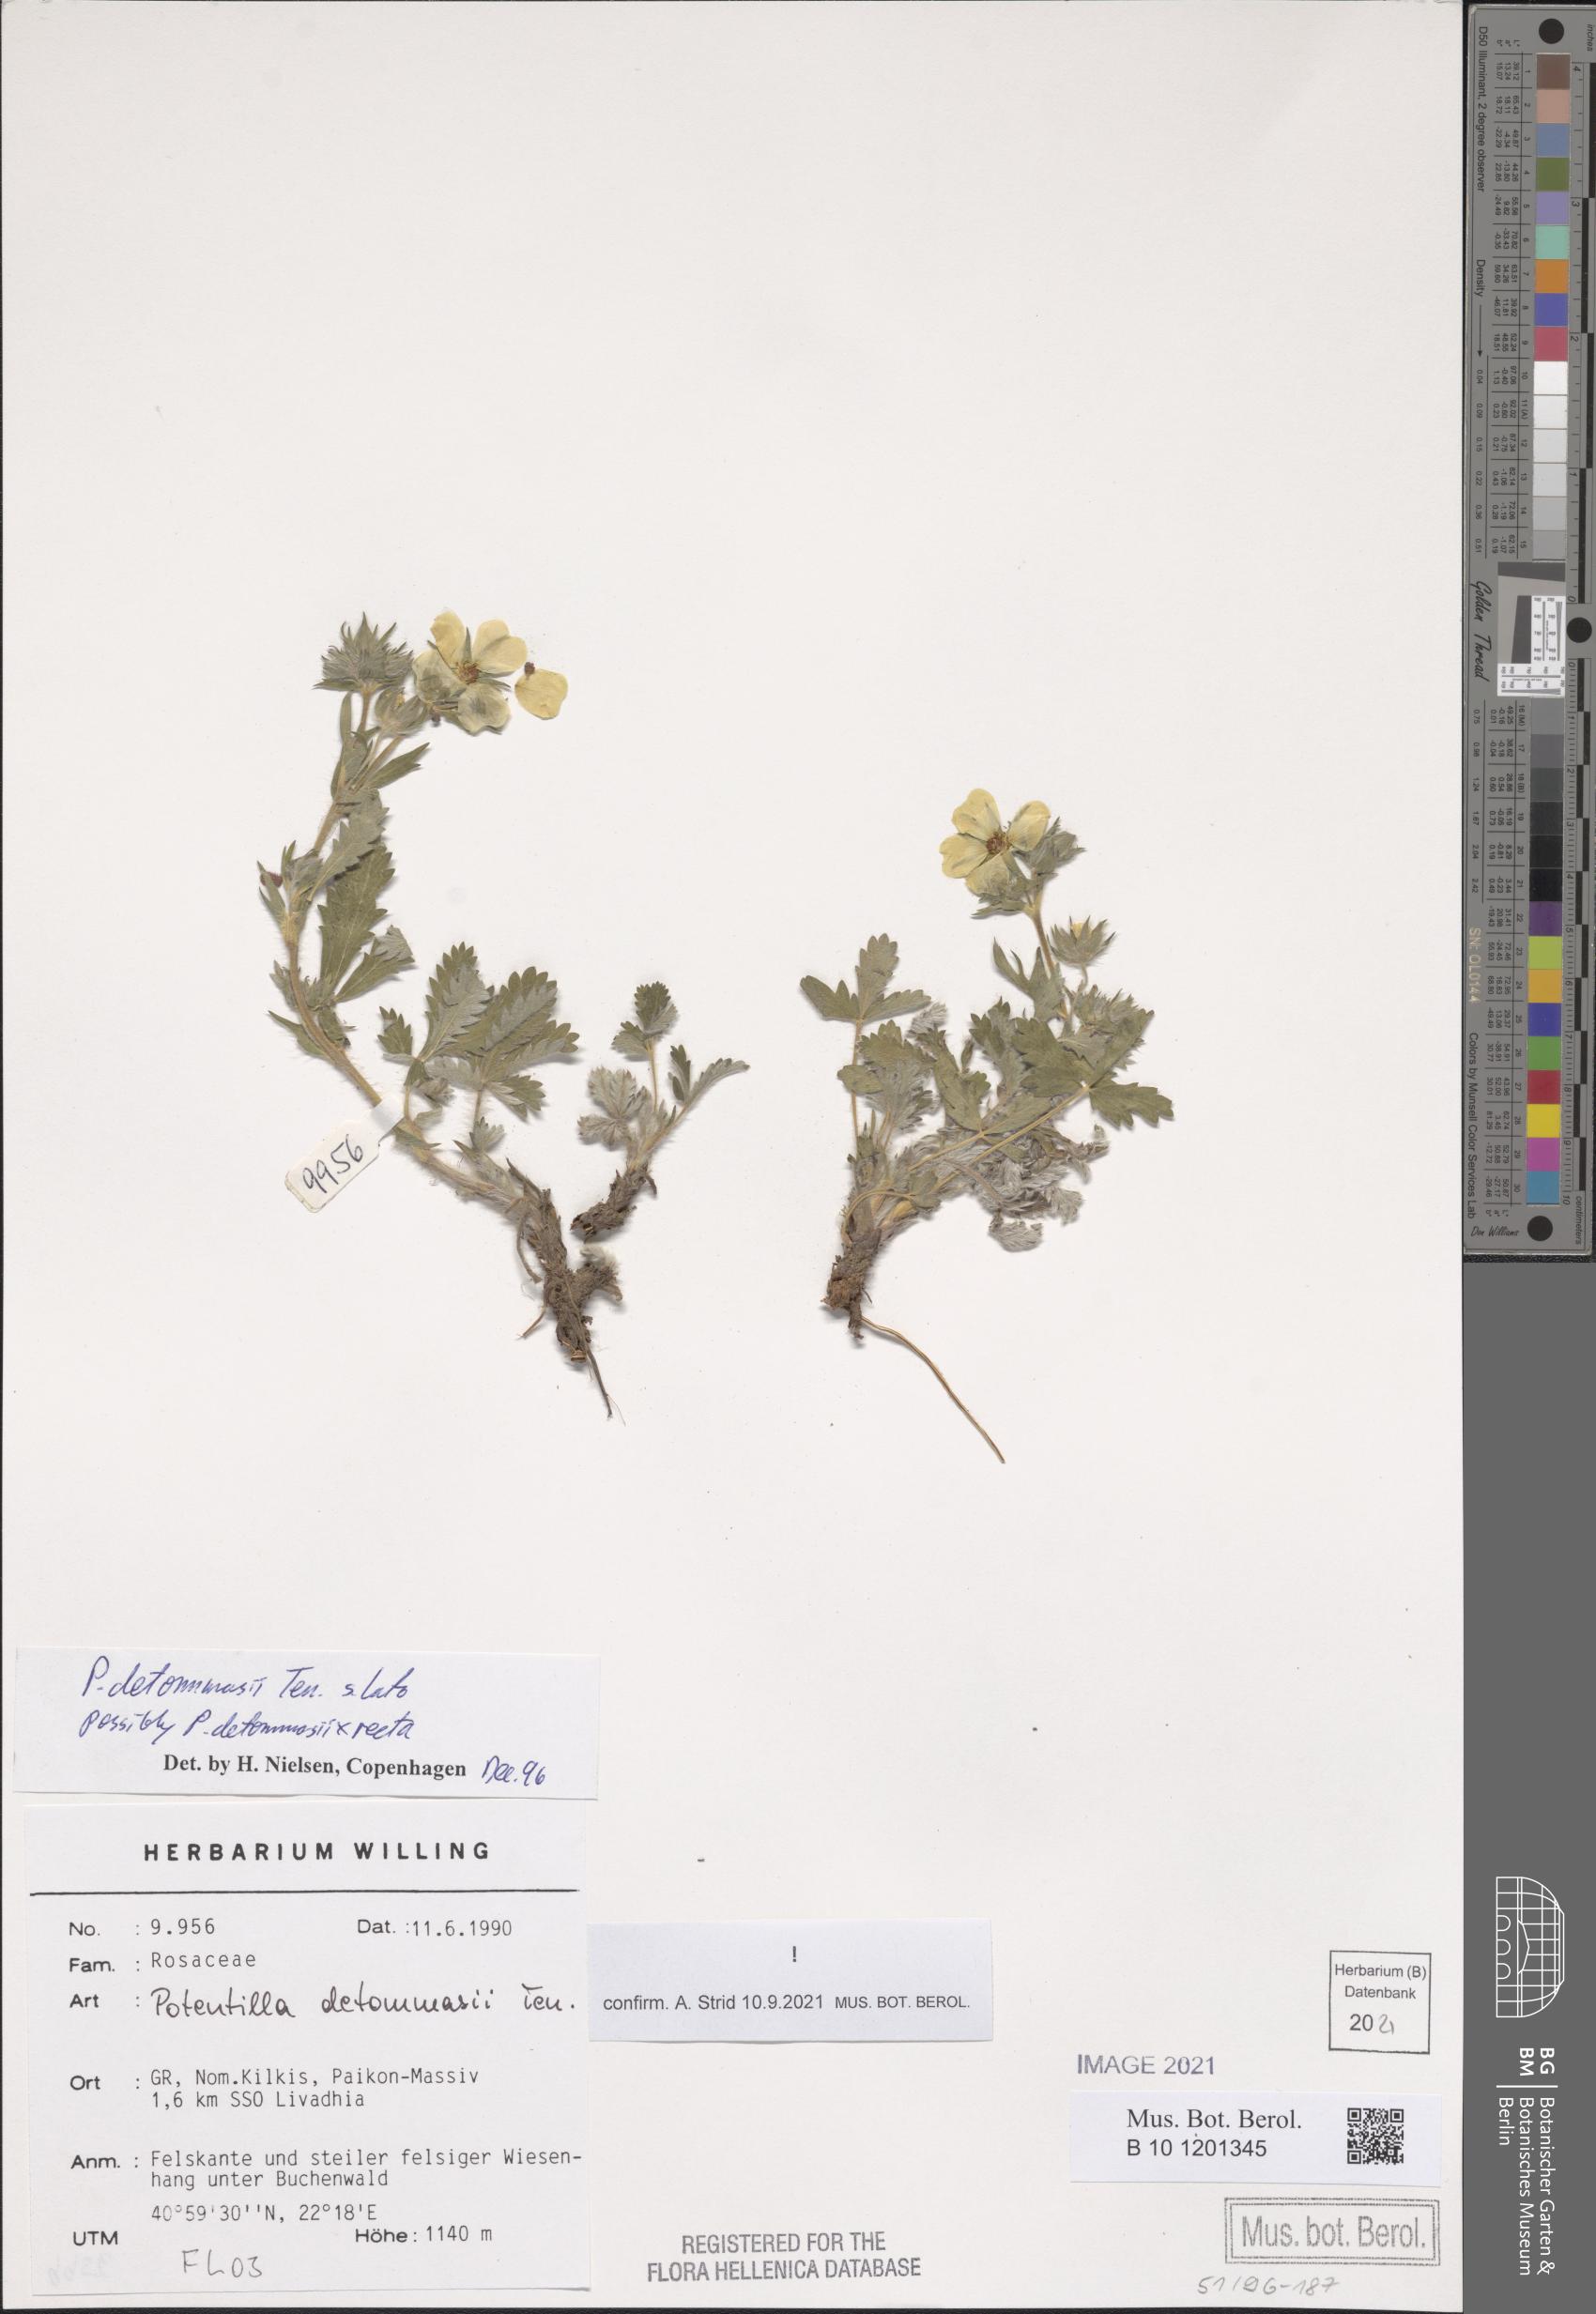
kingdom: Plantae
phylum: Tracheophyta
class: Magnoliopsida
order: Rosales
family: Rosaceae
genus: Potentilla
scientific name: Potentilla detommasii
